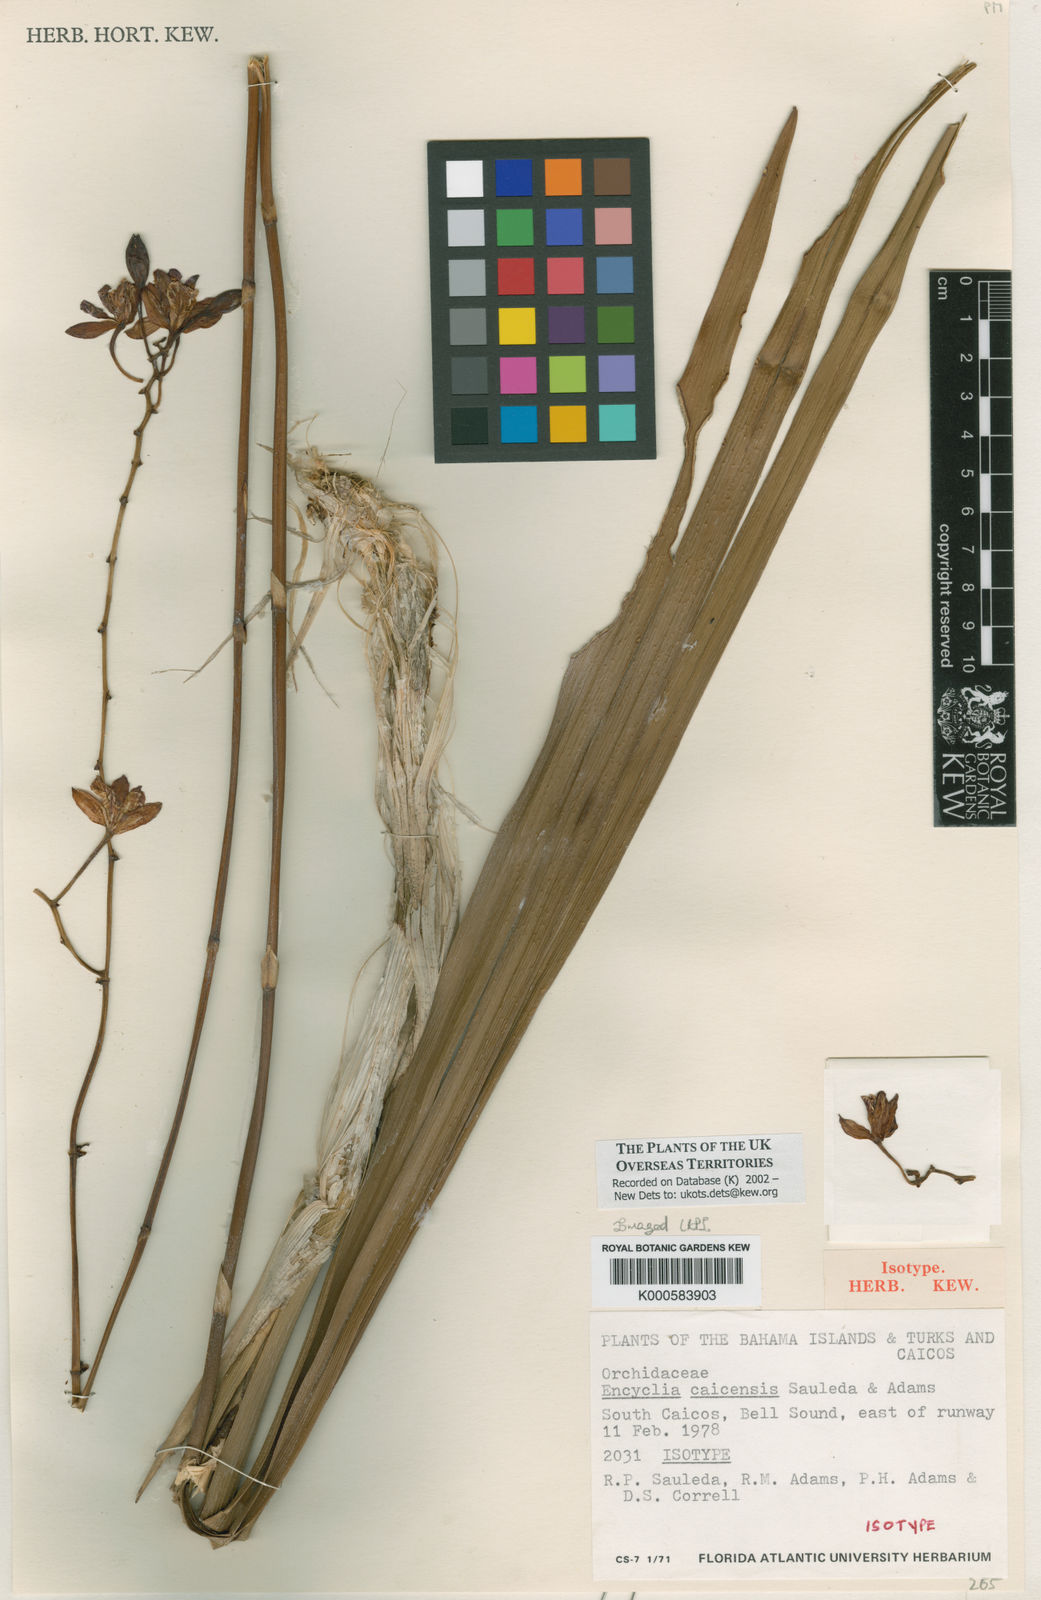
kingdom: Plantae
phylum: Tracheophyta
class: Liliopsida
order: Asparagales
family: Orchidaceae
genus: Encyclia
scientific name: Encyclia caicensis
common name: Life plant
